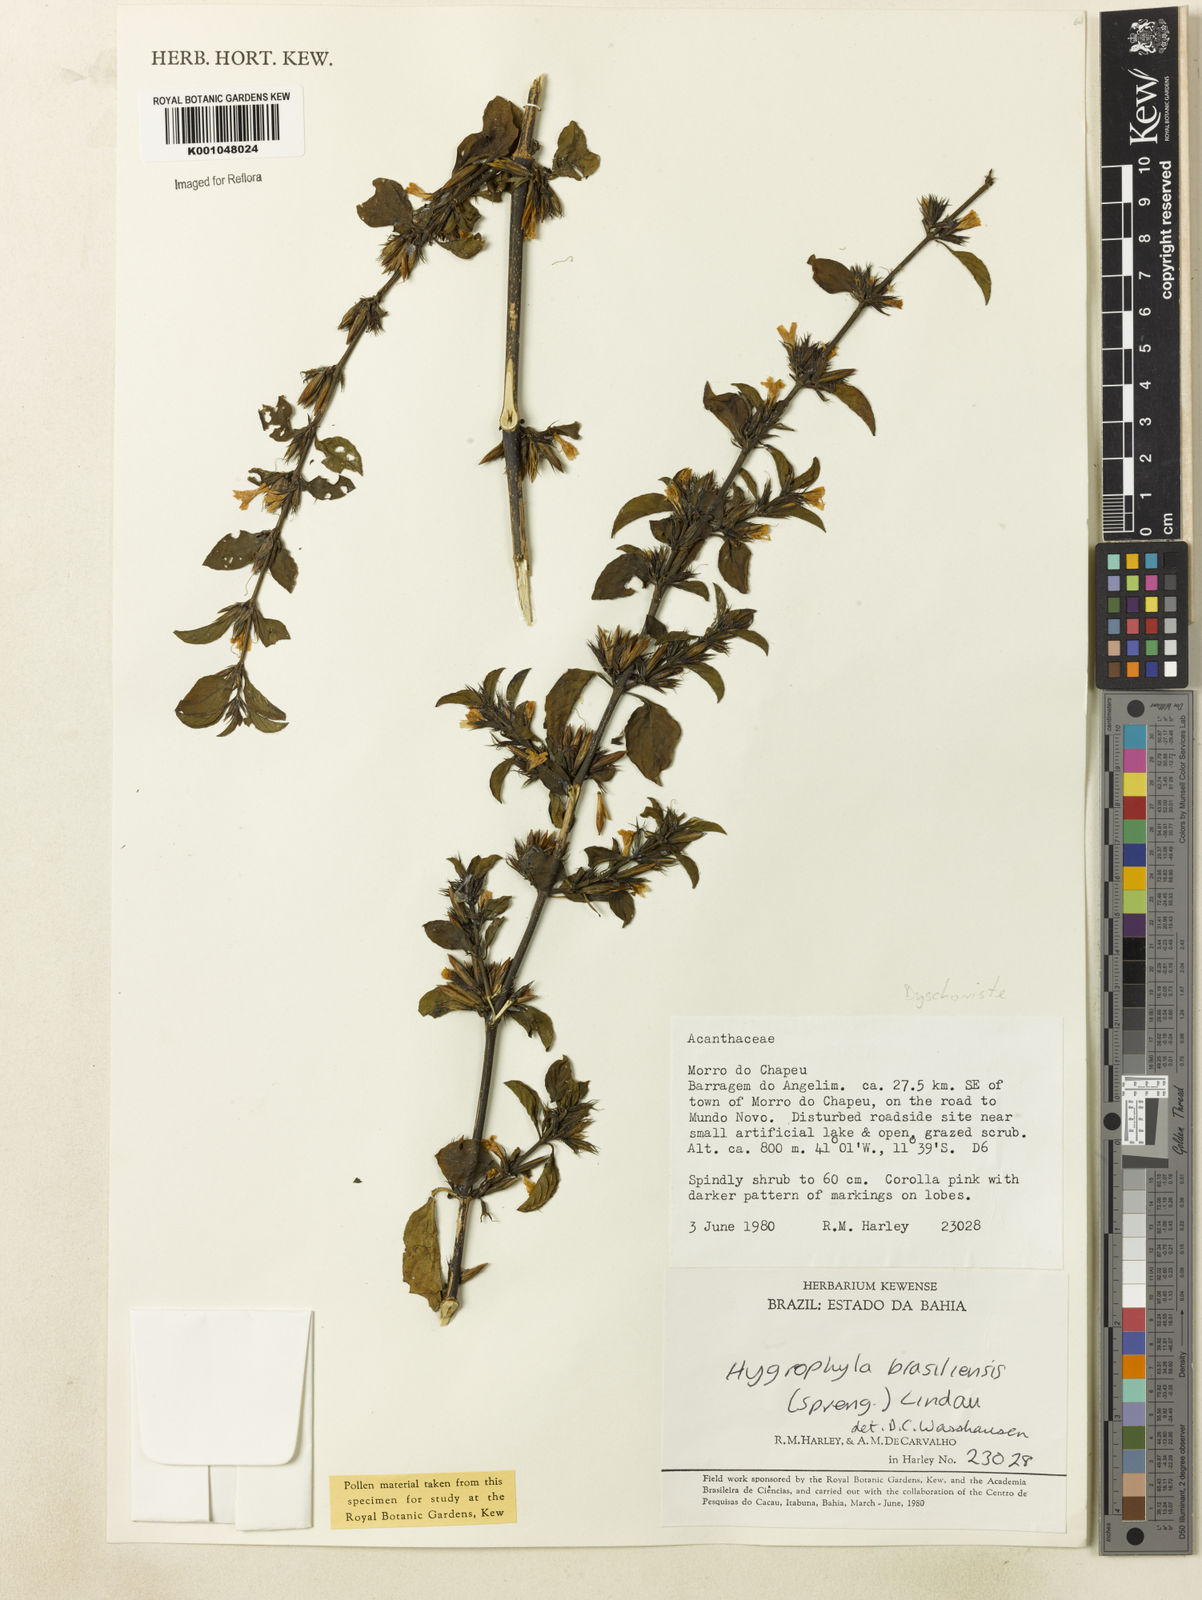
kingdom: Plantae
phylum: Tracheophyta
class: Magnoliopsida
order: Lamiales
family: Acanthaceae
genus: Dyschoriste
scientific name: Dyschoriste
